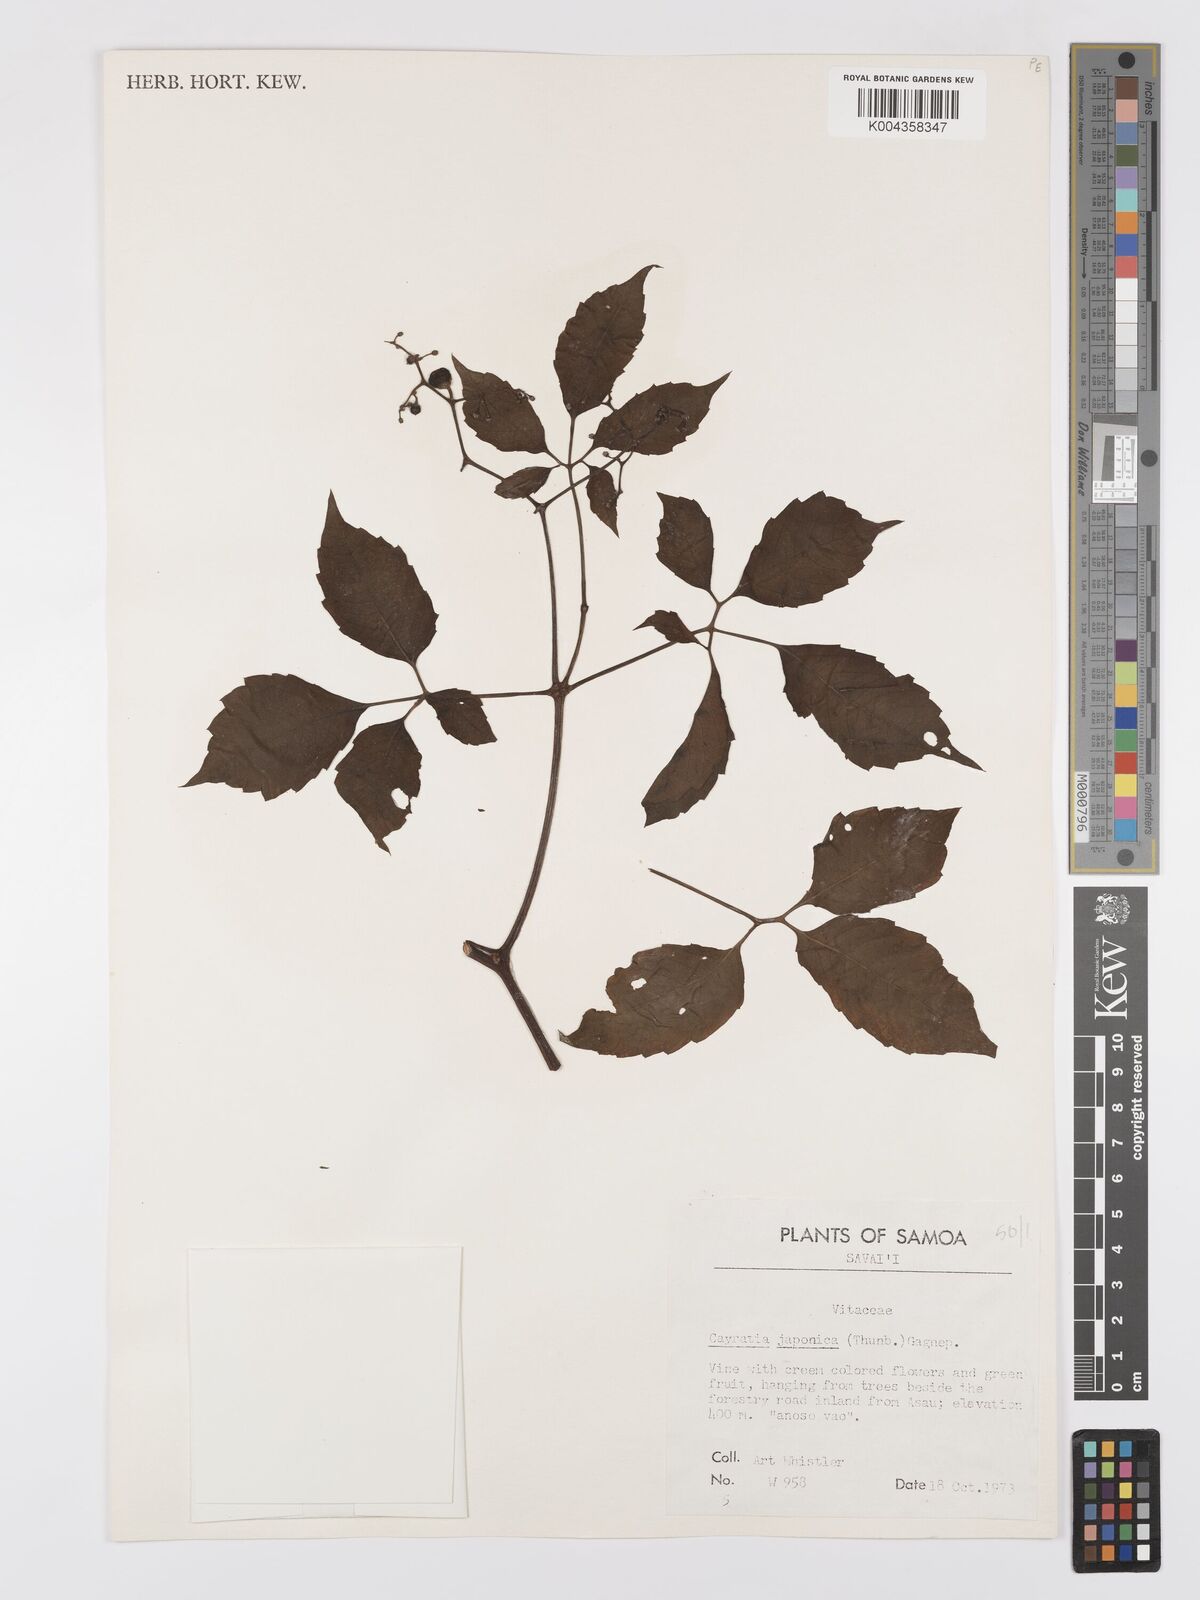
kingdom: Plantae
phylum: Tracheophyta
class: Magnoliopsida
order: Vitales
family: Vitaceae
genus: Causonis
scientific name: Causonis japonica
